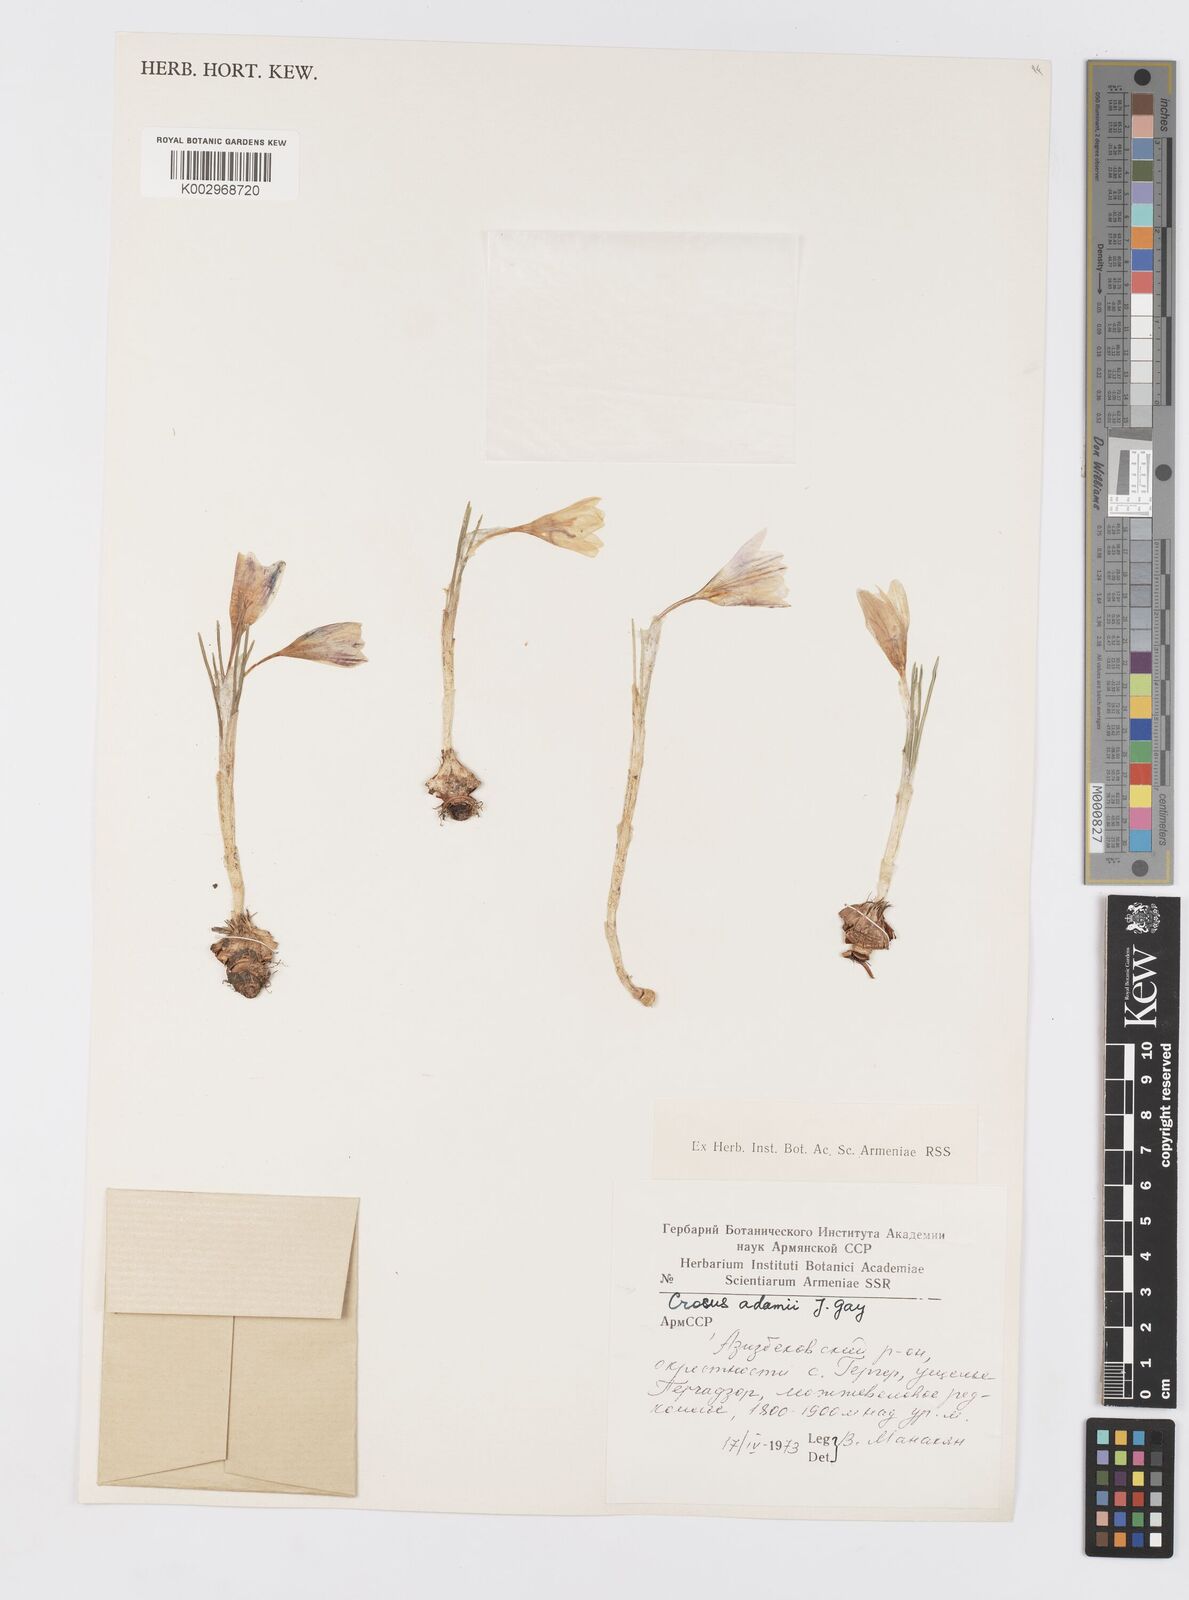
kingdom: Plantae
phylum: Tracheophyta
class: Liliopsida
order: Asparagales
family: Iridaceae
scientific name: Iridaceae
